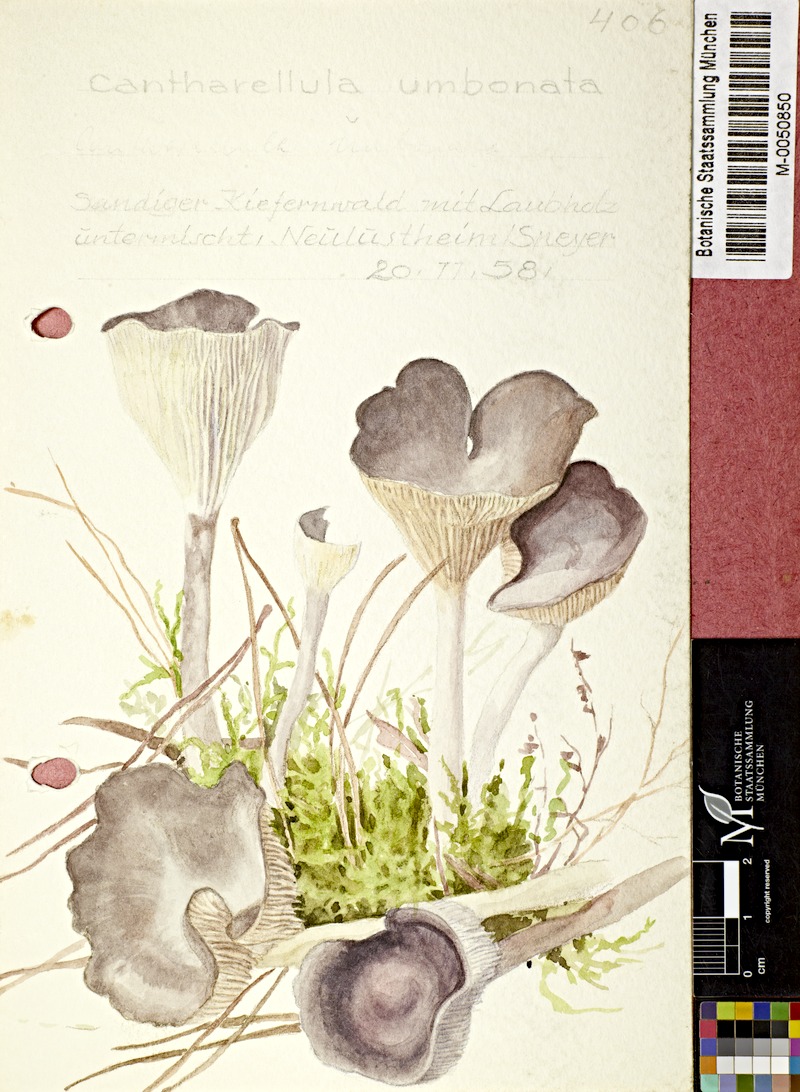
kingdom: Fungi
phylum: Basidiomycota
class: Agaricomycetes
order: Agaricales
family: Hygrophoraceae
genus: Cantharellula
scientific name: Cantharellula umbonata
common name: The humpback
